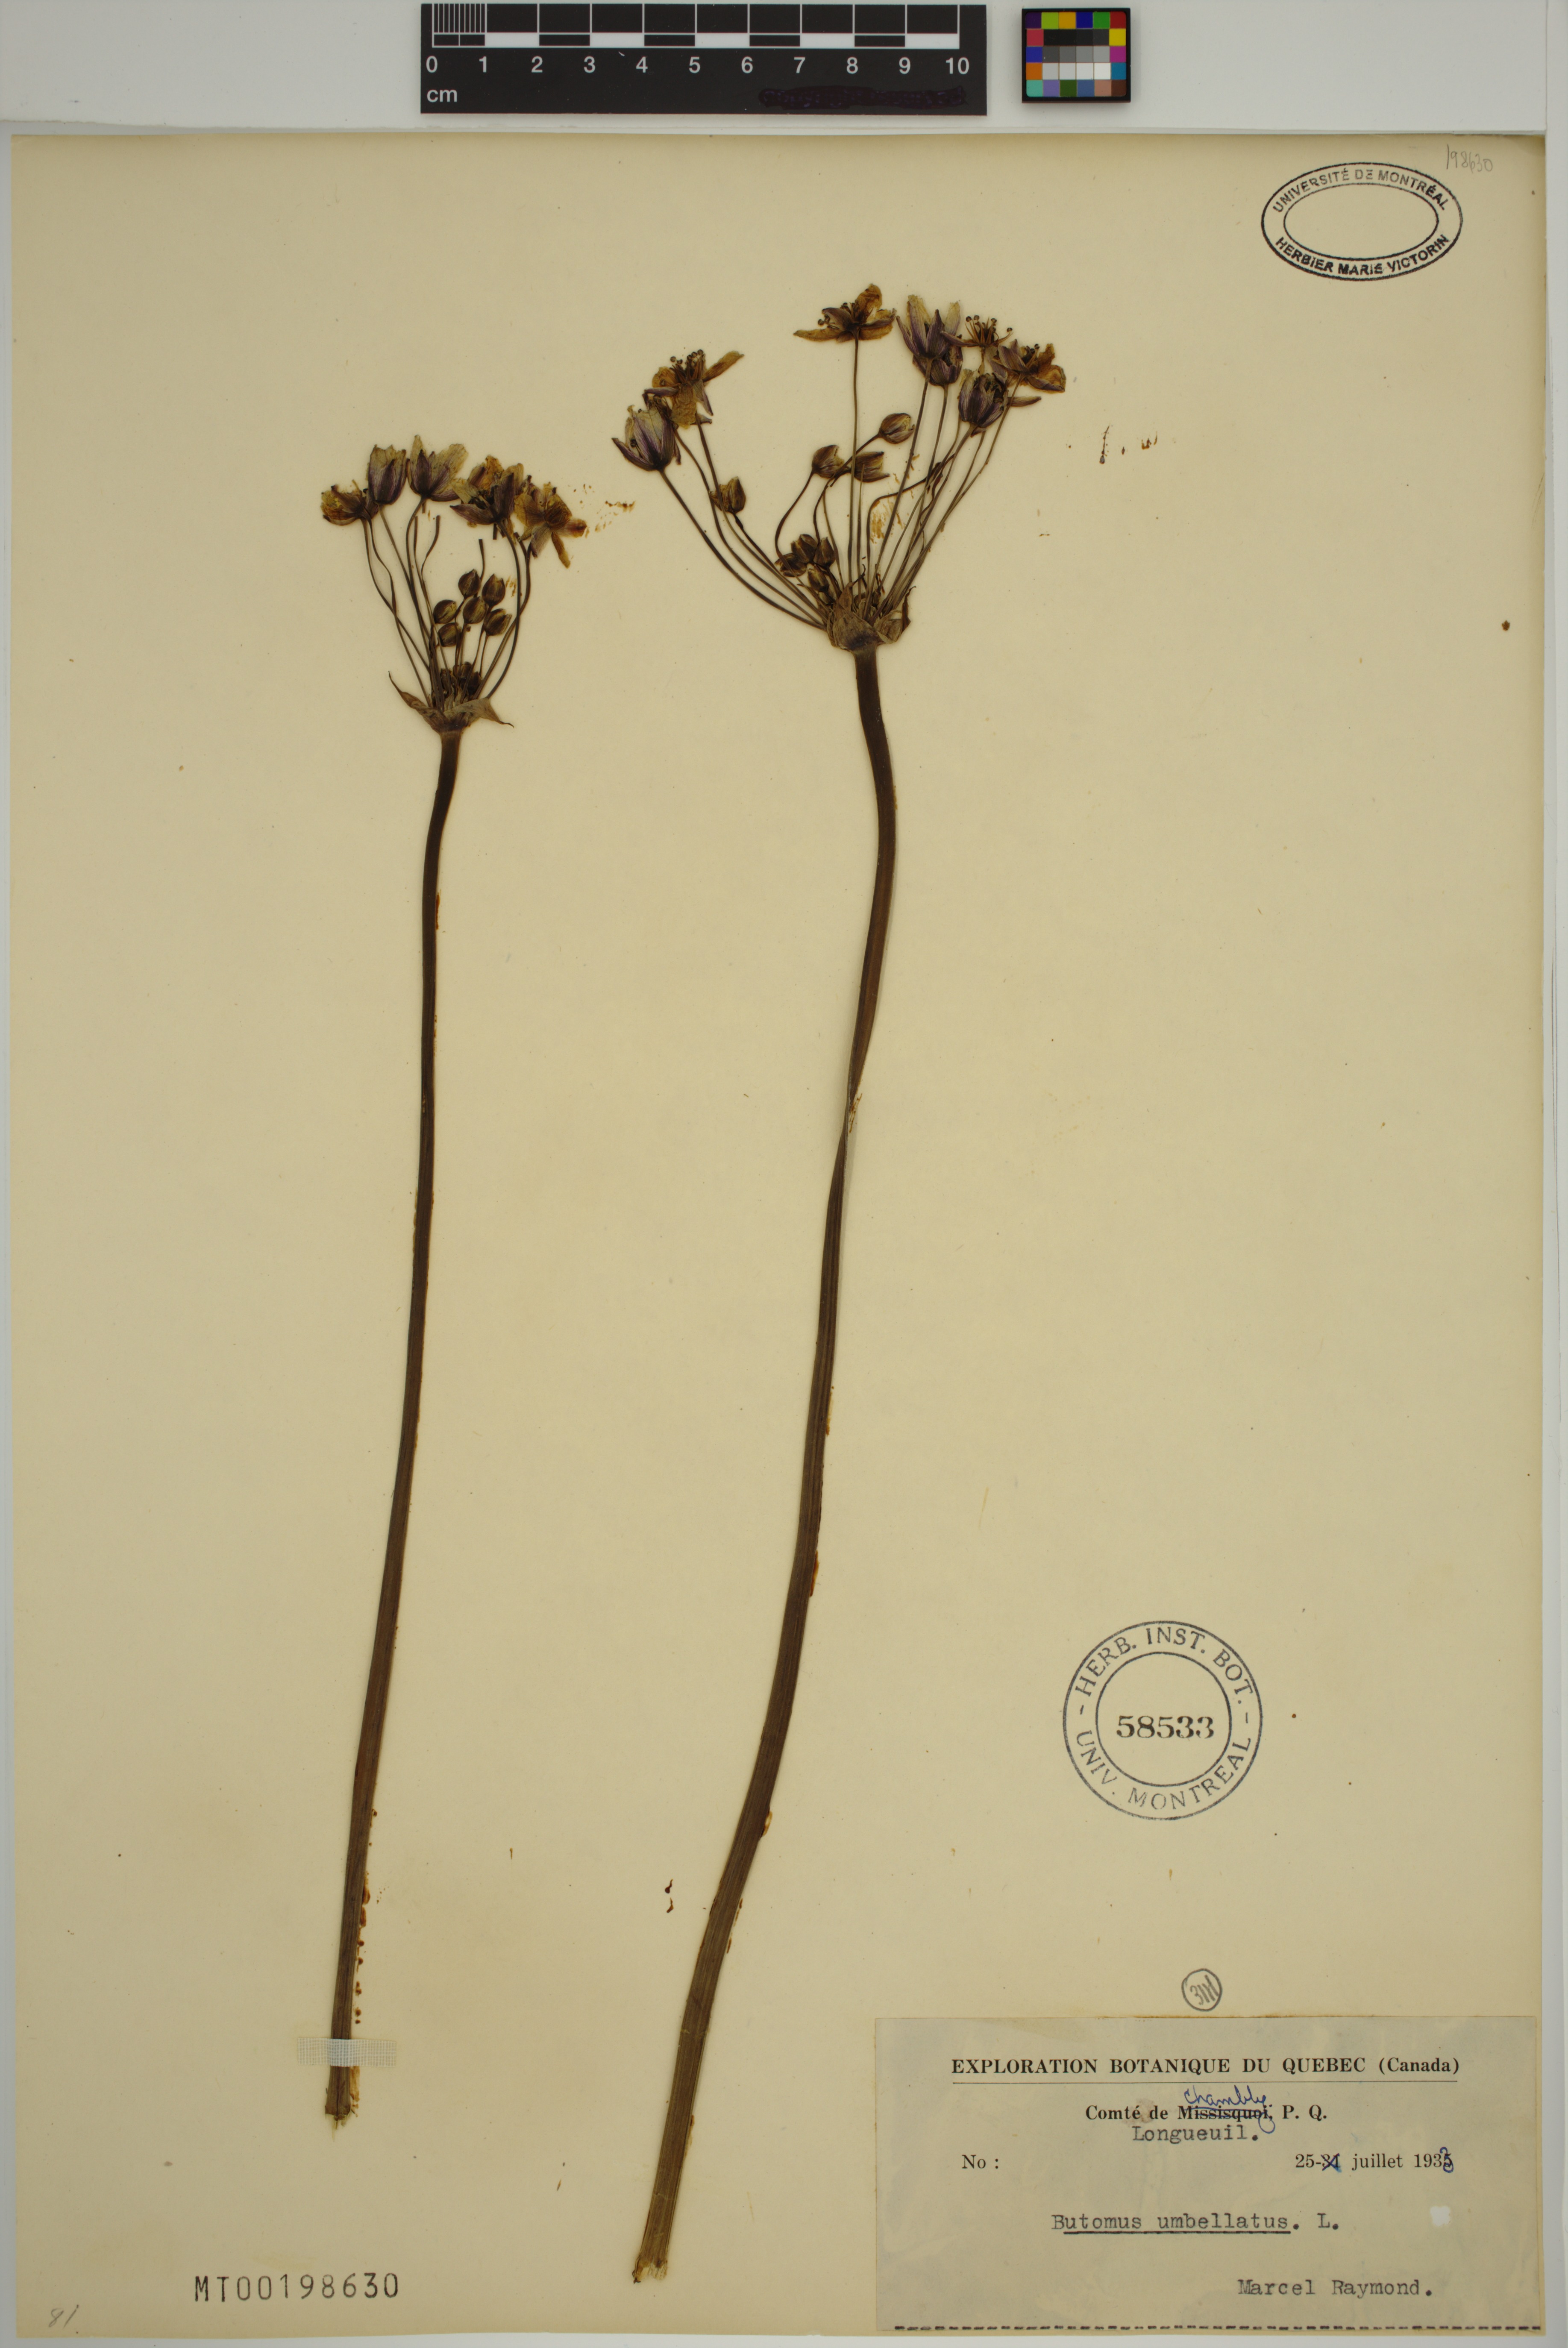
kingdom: Plantae
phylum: Tracheophyta
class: Liliopsida
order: Alismatales
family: Butomaceae
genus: Butomus
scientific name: Butomus umbellatus
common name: Flowering-rush
